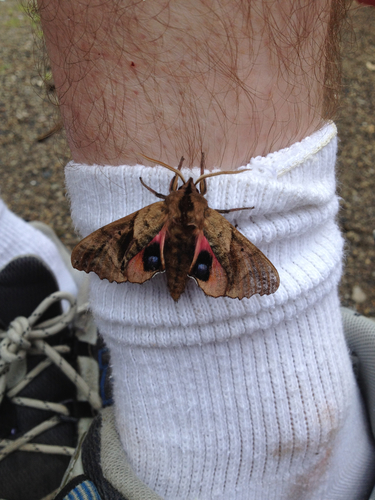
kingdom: Animalia
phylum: Arthropoda
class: Insecta
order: Lepidoptera
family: Sphingidae
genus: Paonias
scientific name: Paonias excaecata
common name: Blind-eyed sphinx
